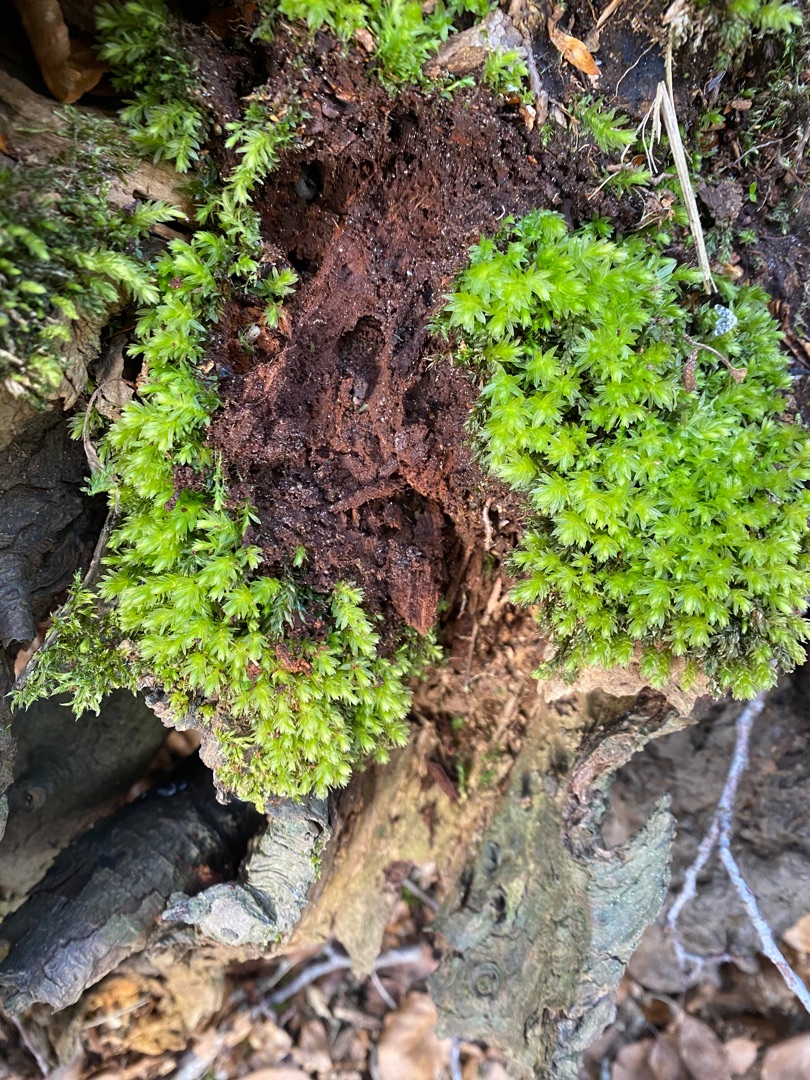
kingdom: Plantae
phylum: Bryophyta
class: Bryopsida
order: Bryales
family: Mniaceae
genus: Mnium
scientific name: Mnium hornum
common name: Brunfiltet stjernemos
